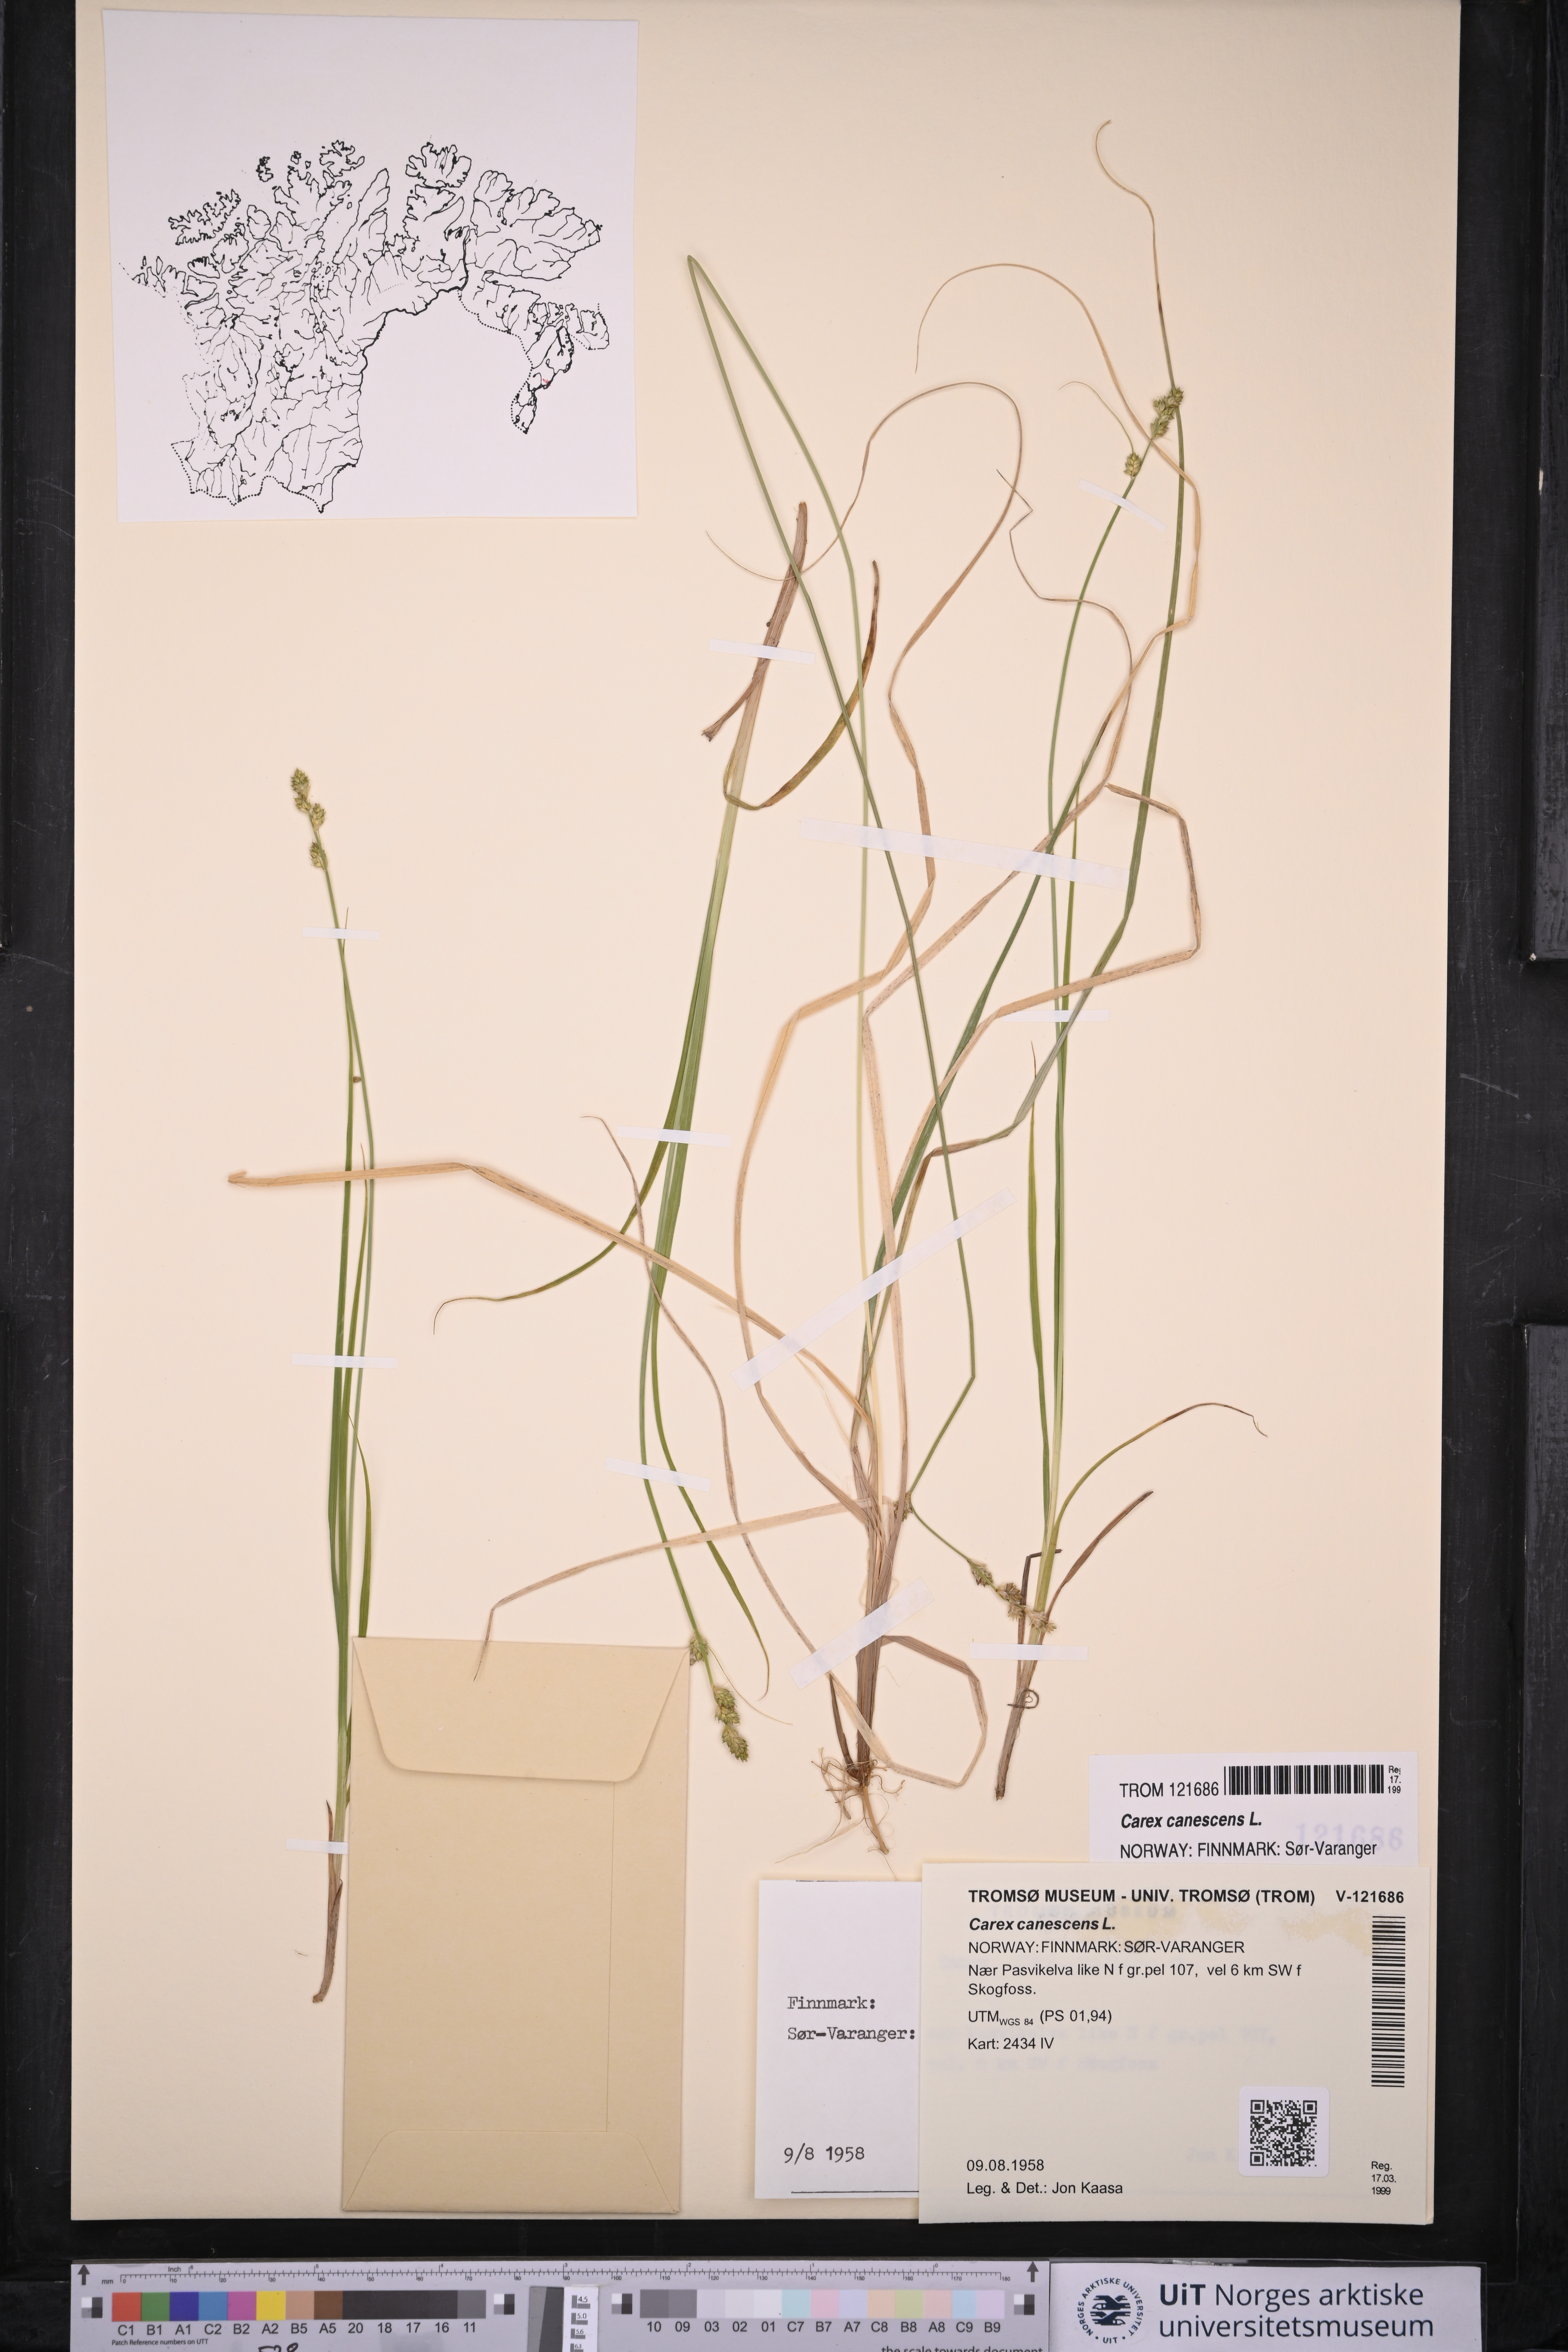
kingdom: Plantae
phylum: Tracheophyta
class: Liliopsida
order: Poales
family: Cyperaceae
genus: Carex
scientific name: Carex canescens
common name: White sedge
